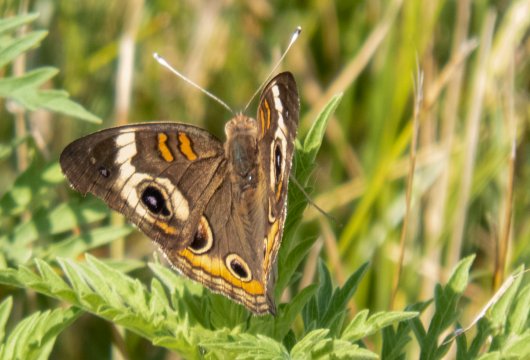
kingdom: Animalia
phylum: Arthropoda
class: Insecta
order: Lepidoptera
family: Nymphalidae
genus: Junonia
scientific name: Junonia coenia
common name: Common Buckeye
